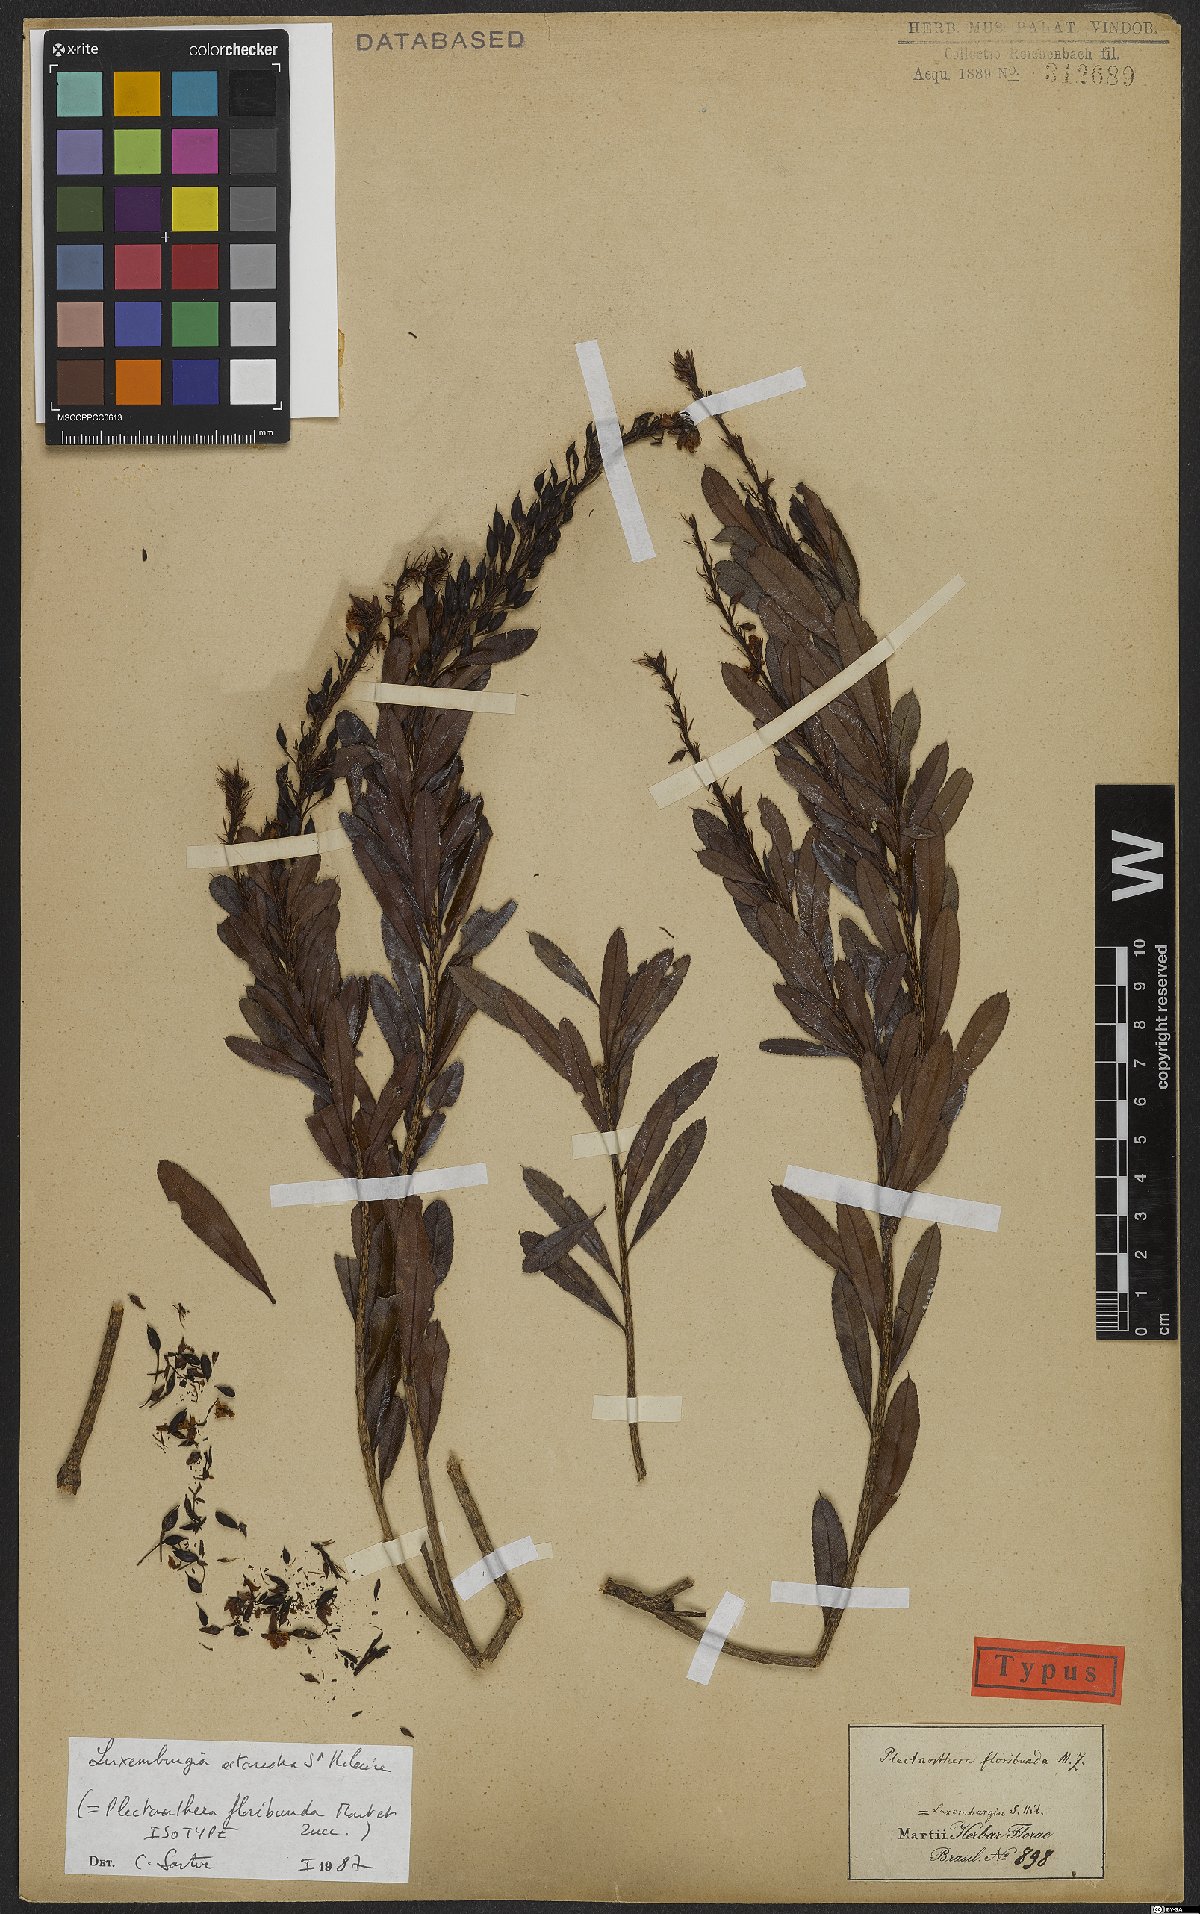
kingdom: Plantae
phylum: Tracheophyta
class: Magnoliopsida
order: Malpighiales
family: Ochnaceae
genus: Luxemburgia
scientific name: Luxemburgia octandra
